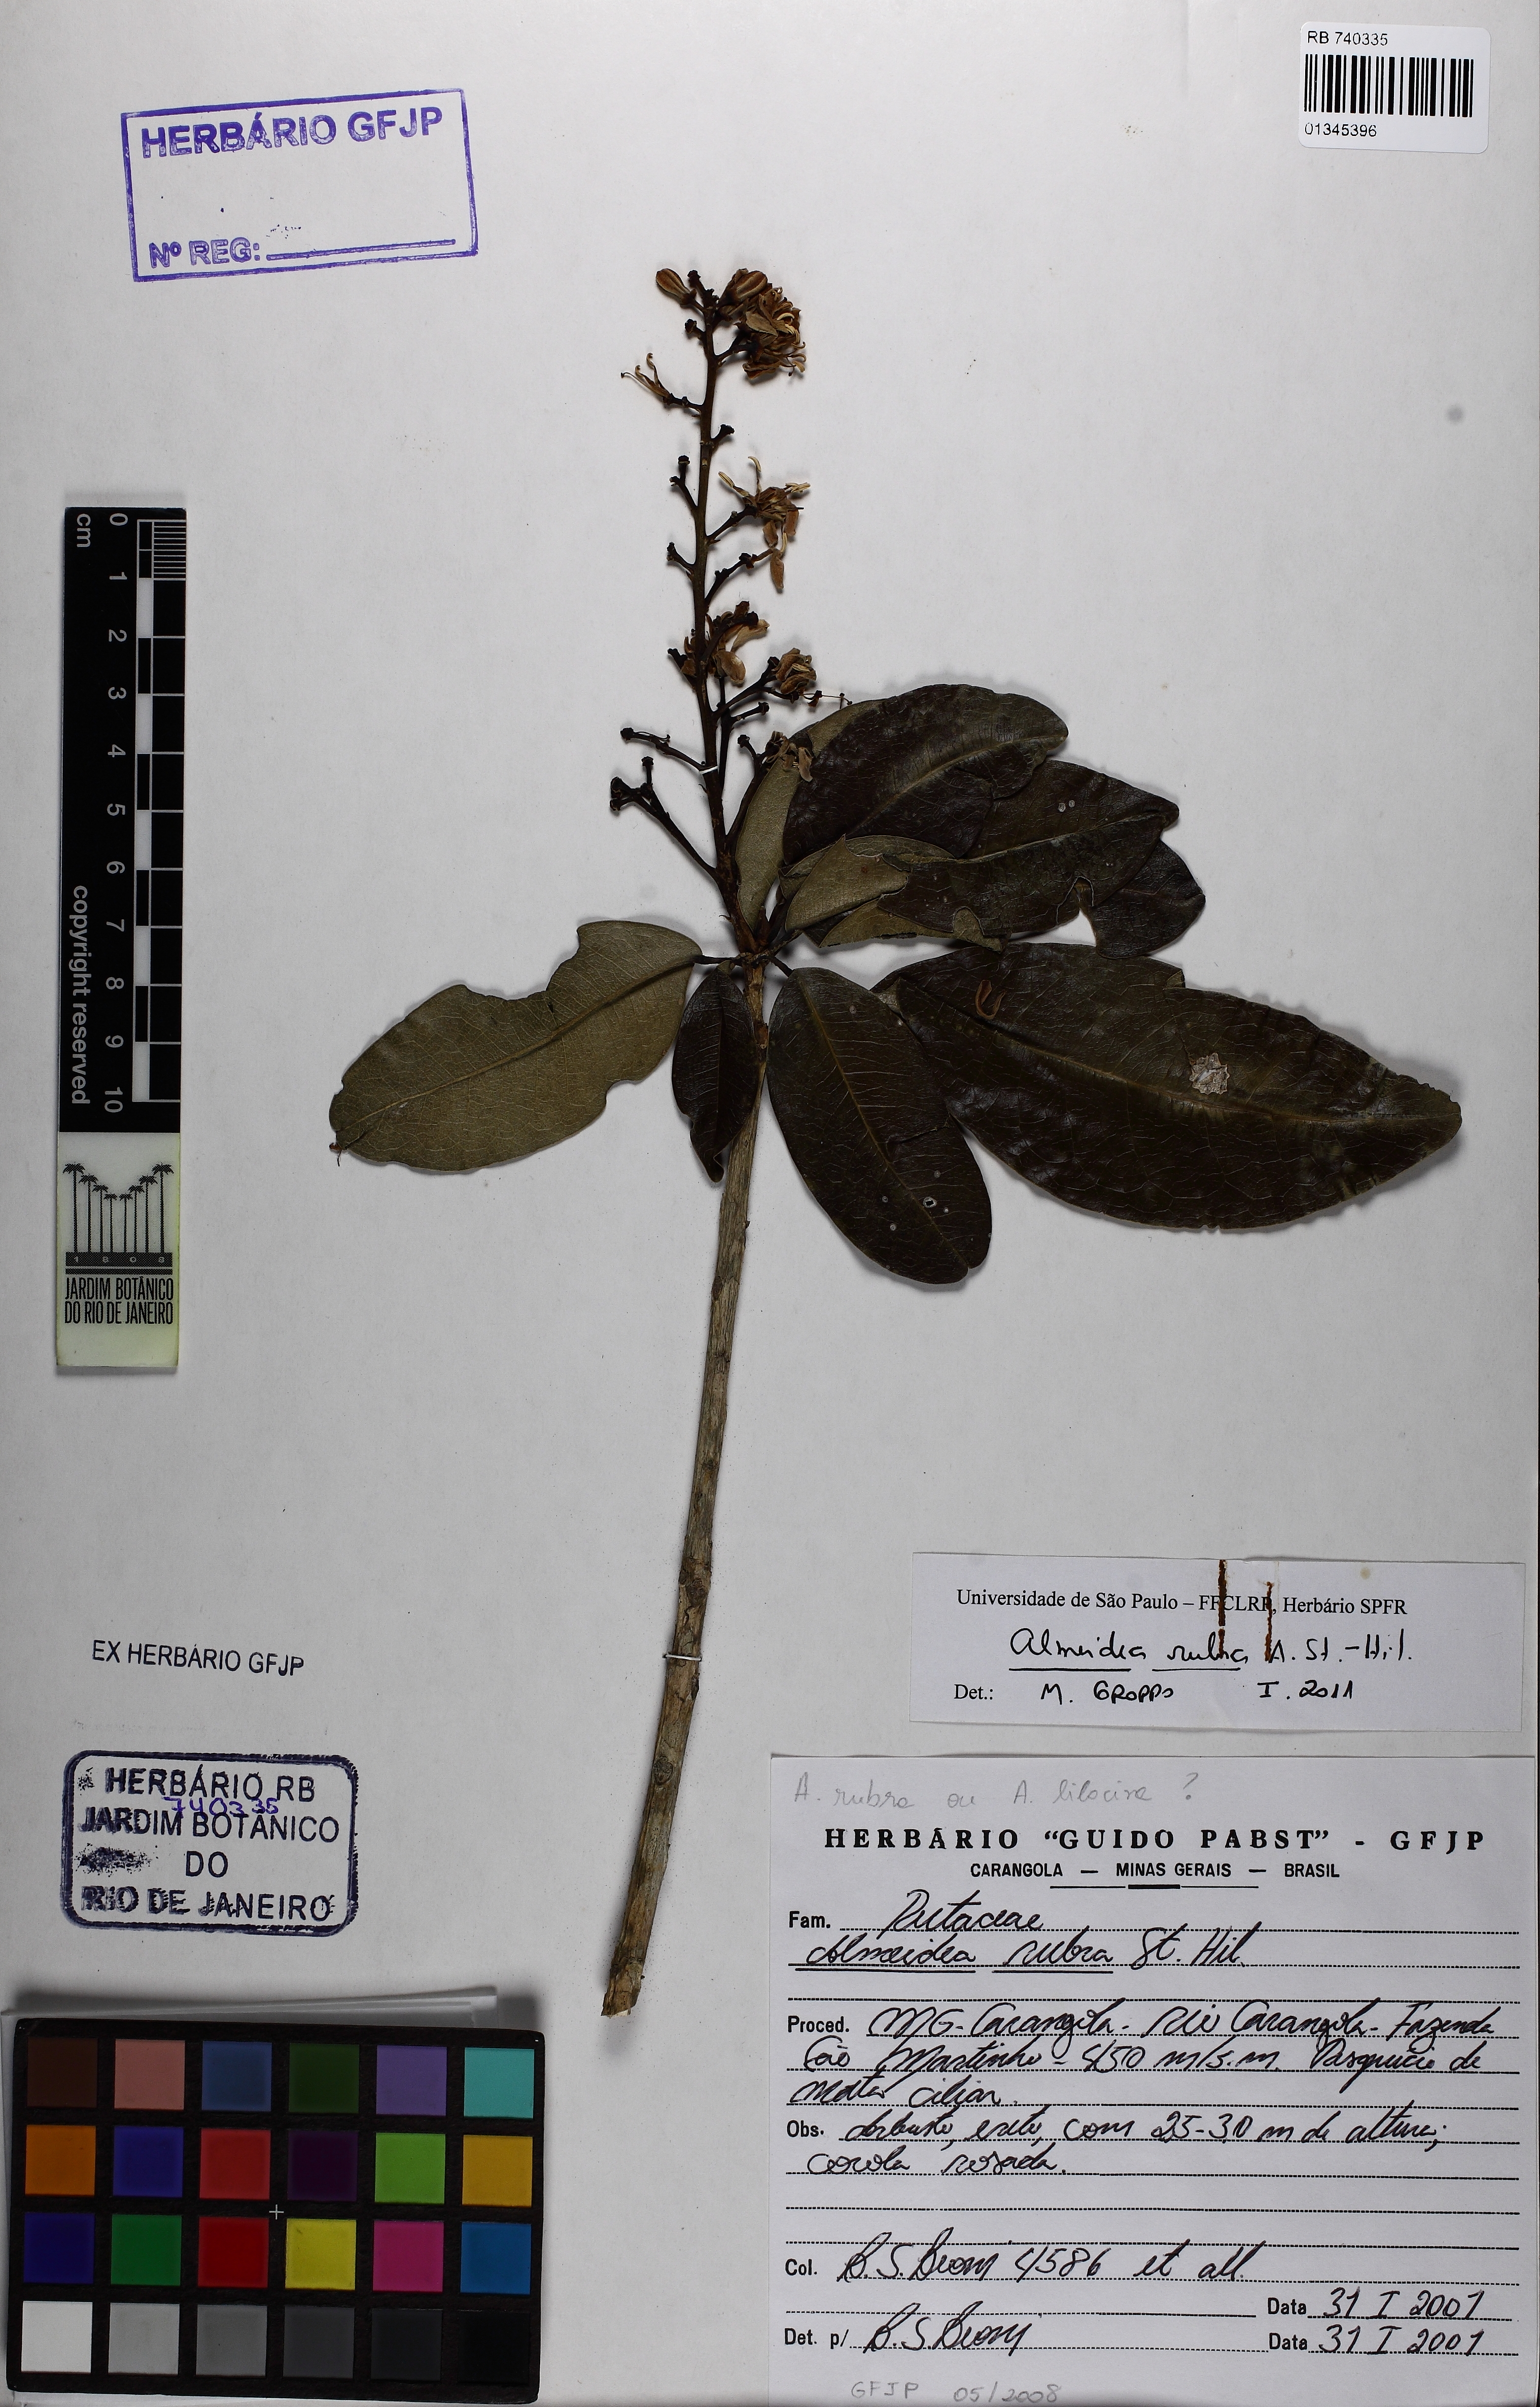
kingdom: Plantae
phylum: Tracheophyta
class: Magnoliopsida
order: Sapindales
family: Rutaceae
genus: Conchocarpus
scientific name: Conchocarpus ruber
